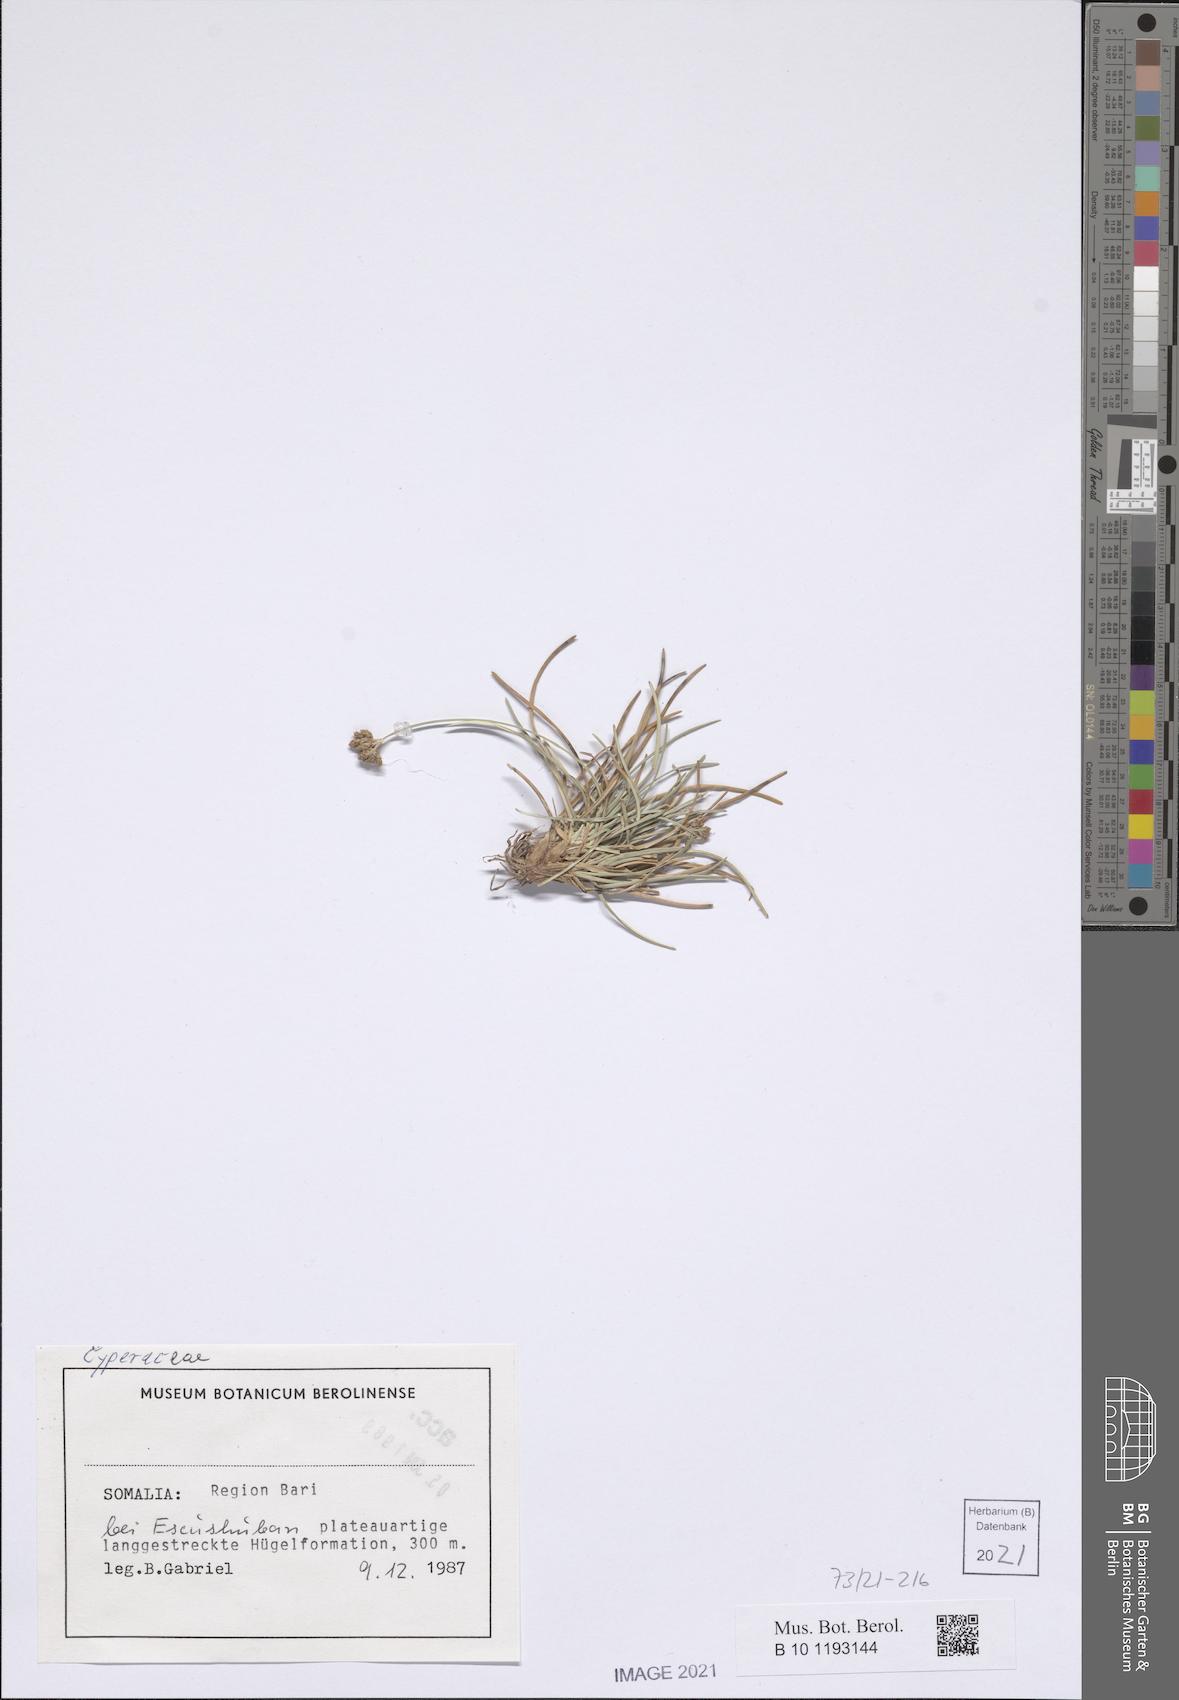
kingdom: Plantae
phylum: Tracheophyta
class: Liliopsida
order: Poales
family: Cyperaceae
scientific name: Cyperaceae
